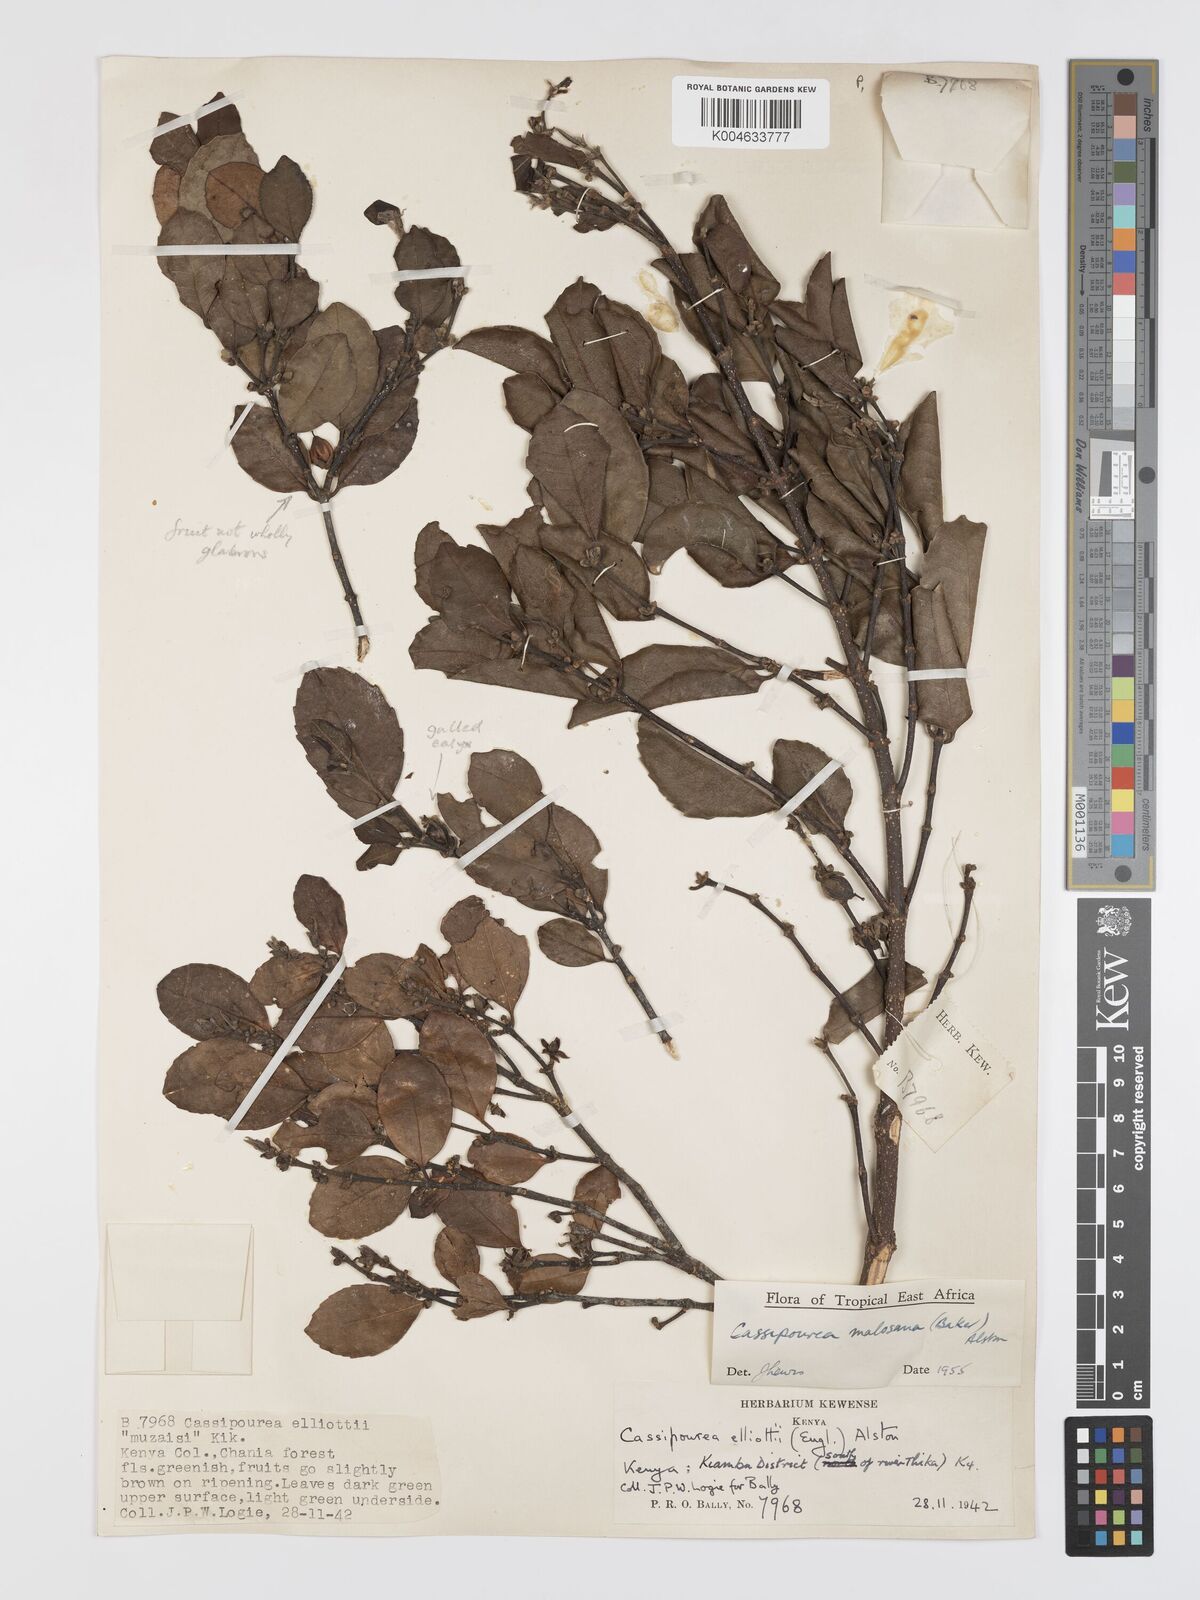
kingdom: Plantae
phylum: Tracheophyta
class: Magnoliopsida
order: Malpighiales
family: Rhizophoraceae
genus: Cassipourea
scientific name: Cassipourea malosana
